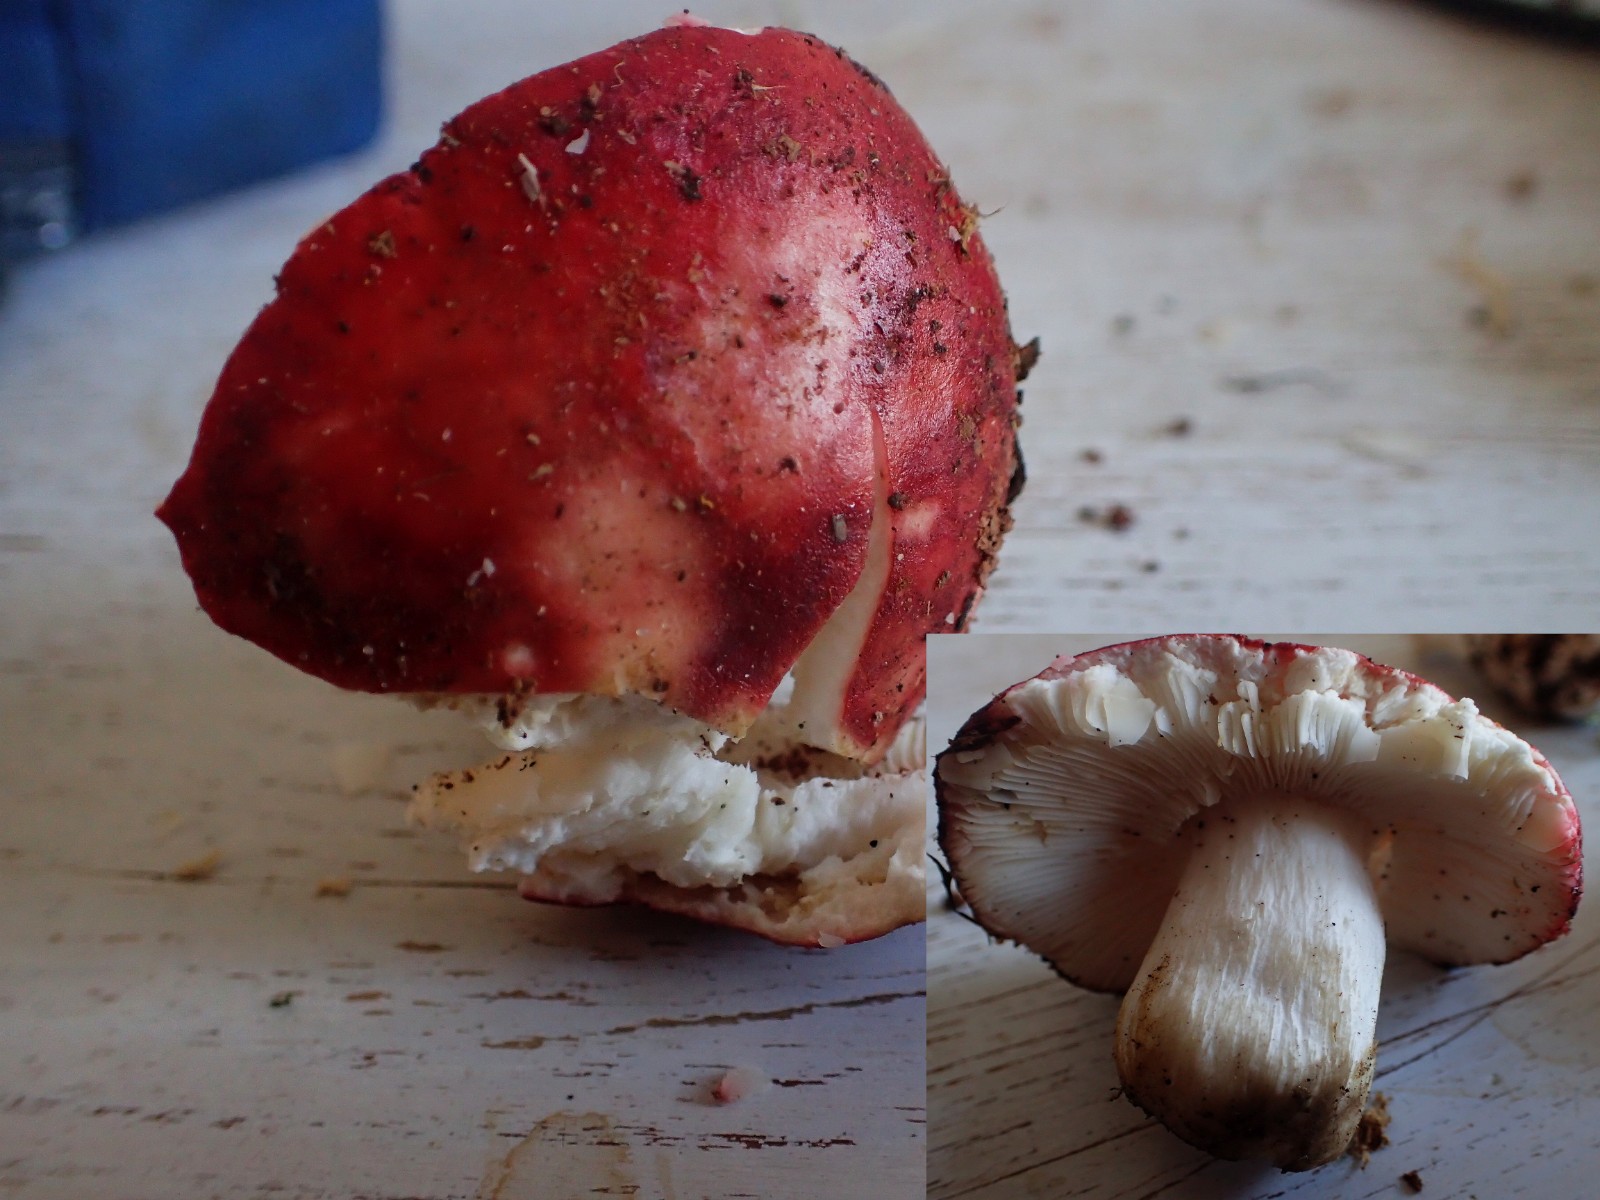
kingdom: Fungi
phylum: Basidiomycota
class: Agaricomycetes
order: Russulales
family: Russulaceae
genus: Russula
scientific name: Russula
